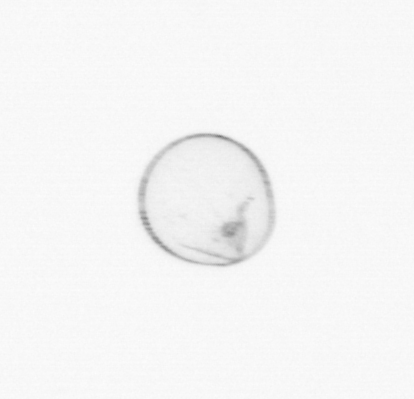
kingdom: Chromista
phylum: Myzozoa
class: Dinophyceae
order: Noctilucales
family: Noctilucaceae
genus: Noctiluca
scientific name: Noctiluca scintillans
